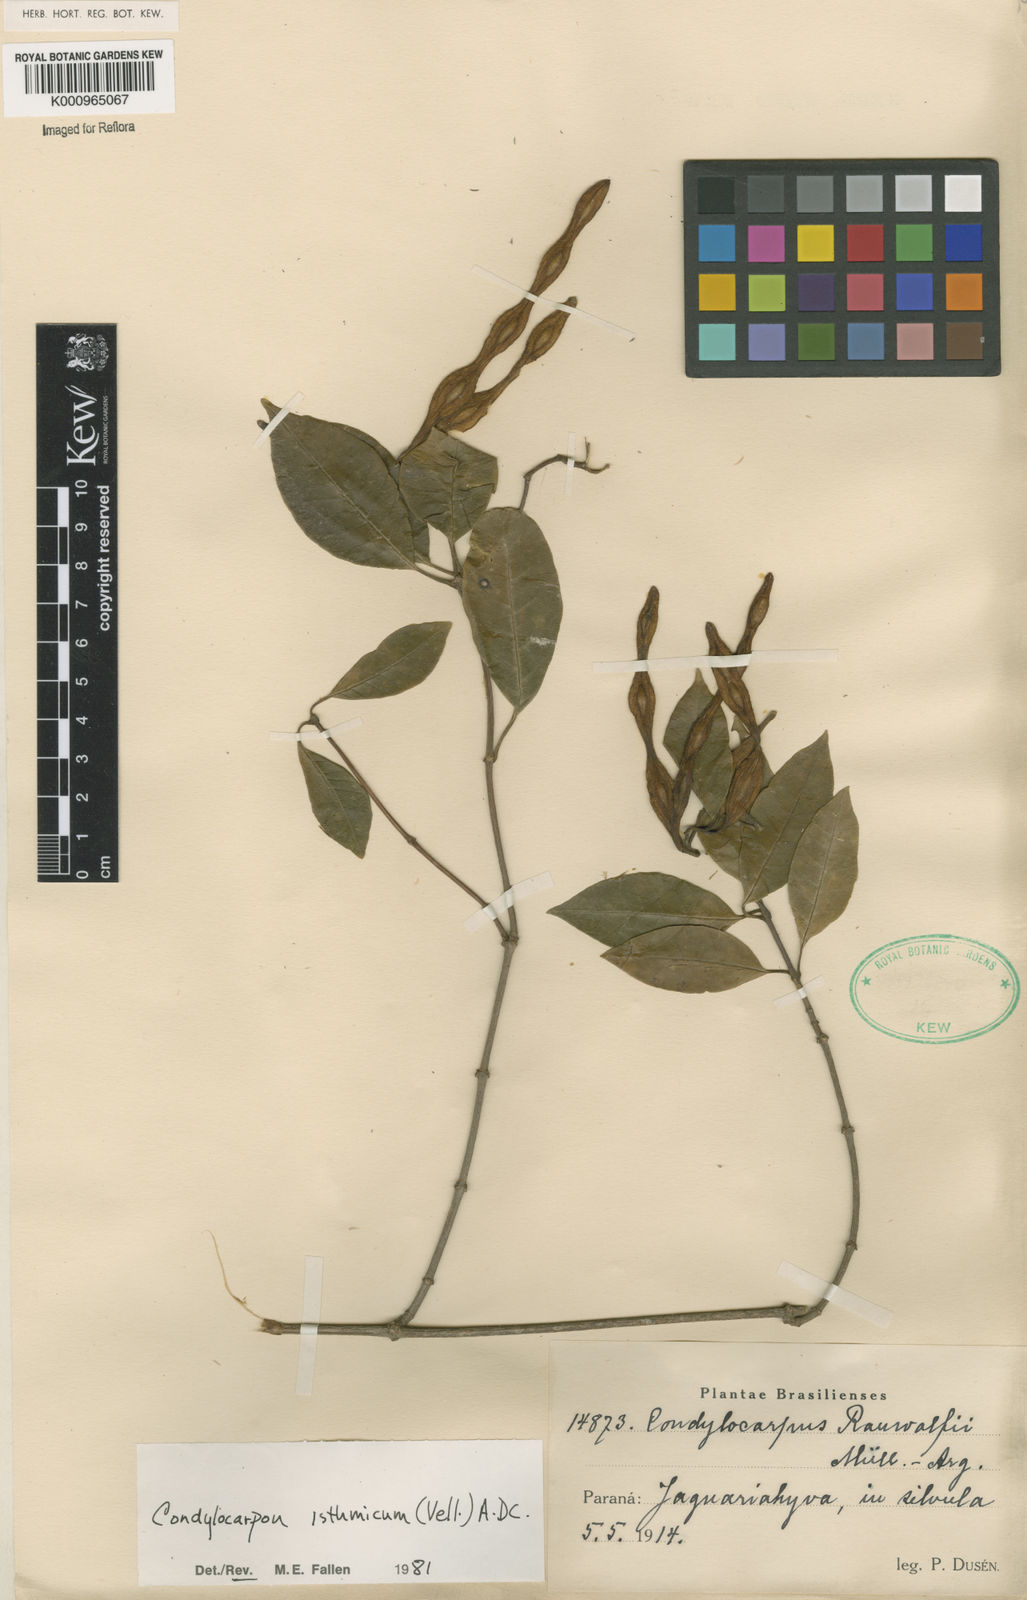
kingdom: Plantae
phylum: Tracheophyta
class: Magnoliopsida
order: Gentianales
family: Apocynaceae
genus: Condylocarpon
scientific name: Condylocarpon isthmicum
